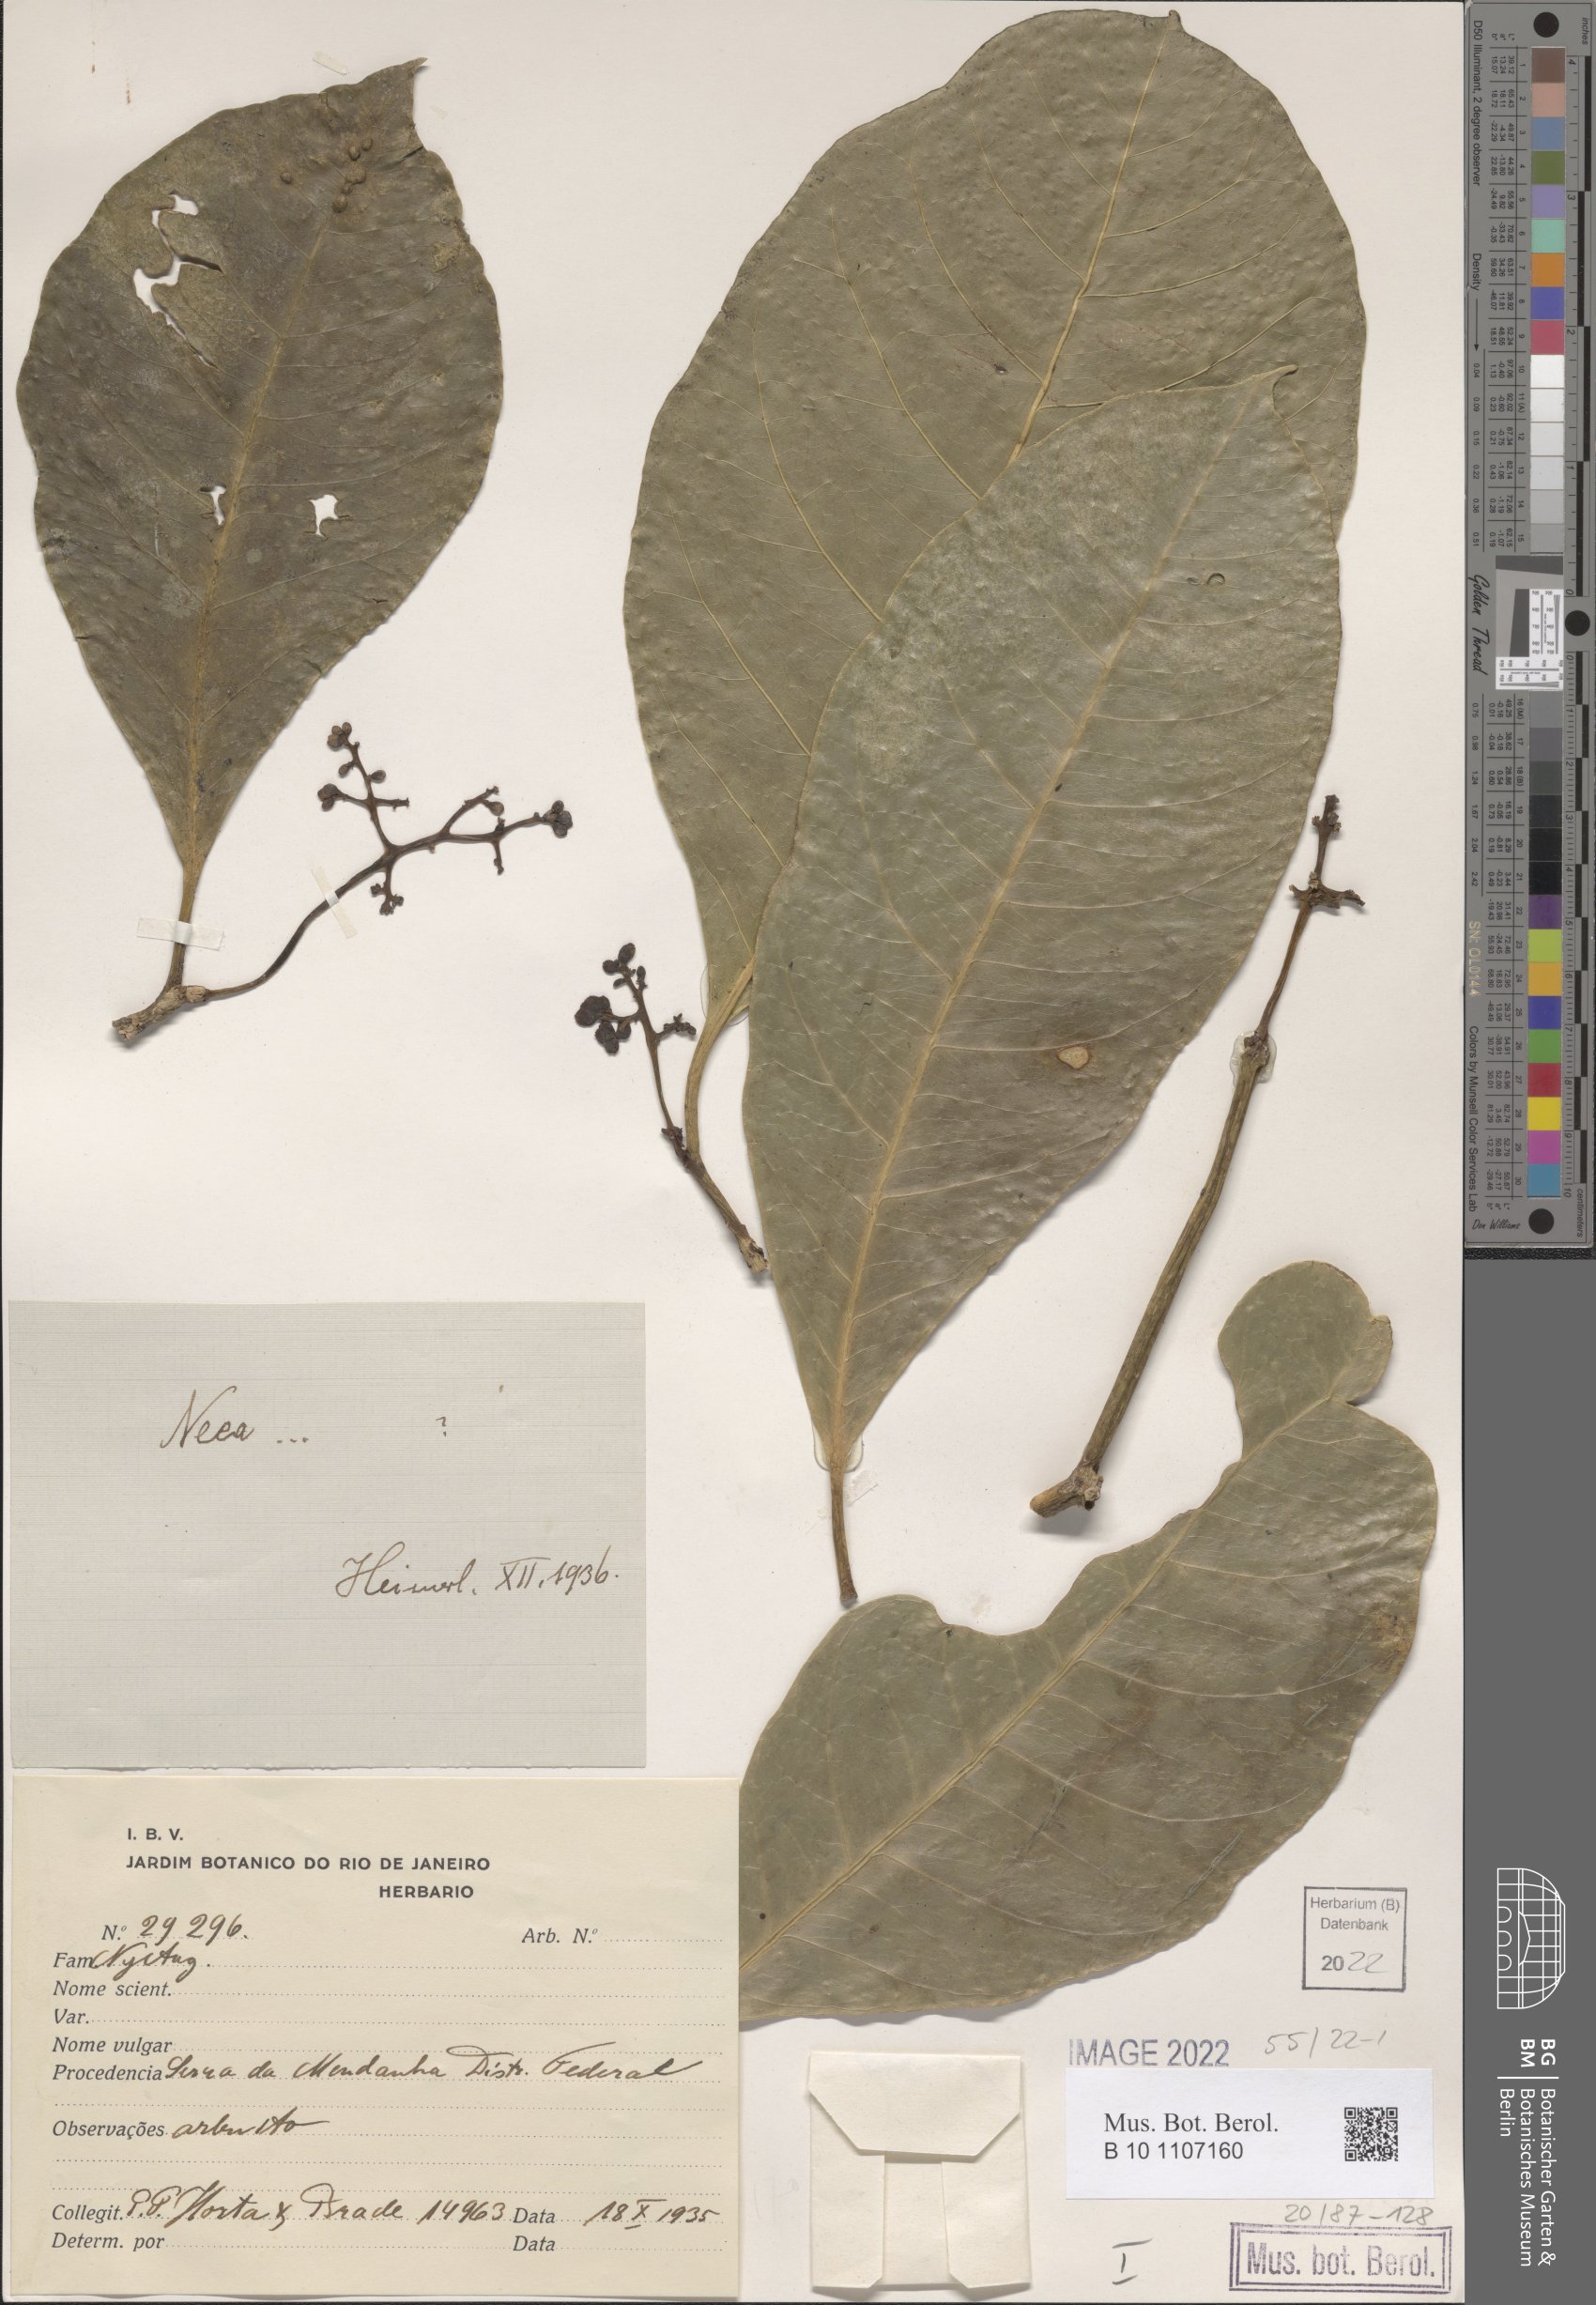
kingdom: Plantae
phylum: Tracheophyta
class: Magnoliopsida
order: Caryophyllales
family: Nyctaginaceae
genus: Neea
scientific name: Neea
